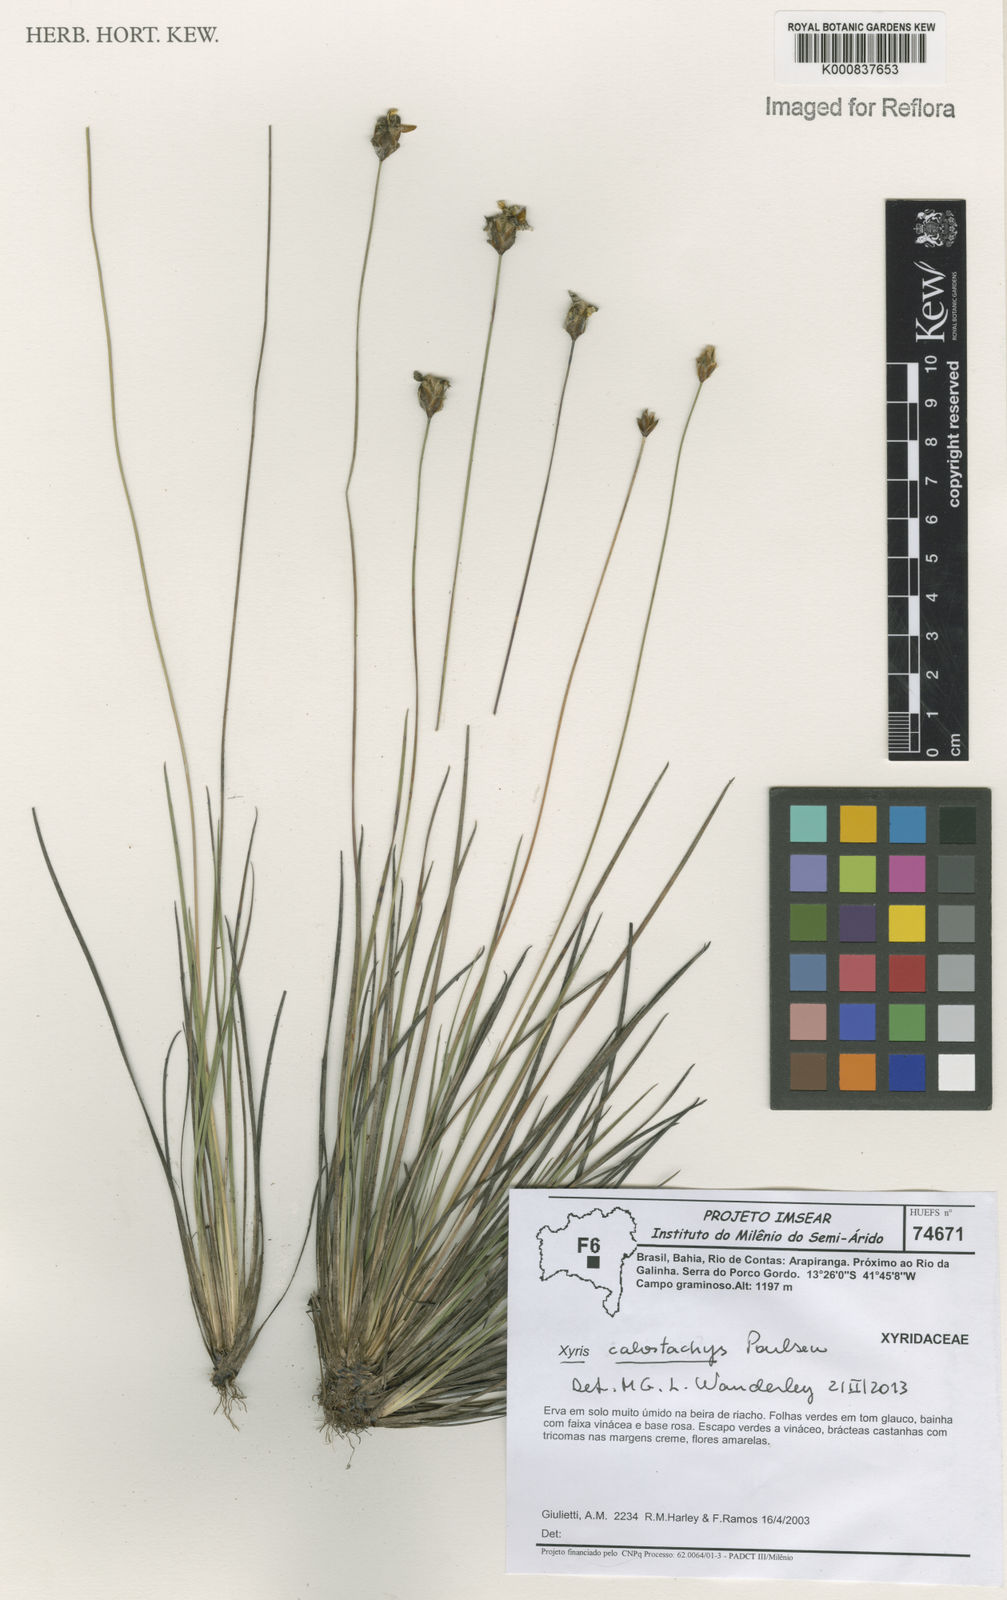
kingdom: Plantae
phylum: Tracheophyta
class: Liliopsida
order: Poales
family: Xyridaceae
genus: Xyris
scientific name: Xyris
